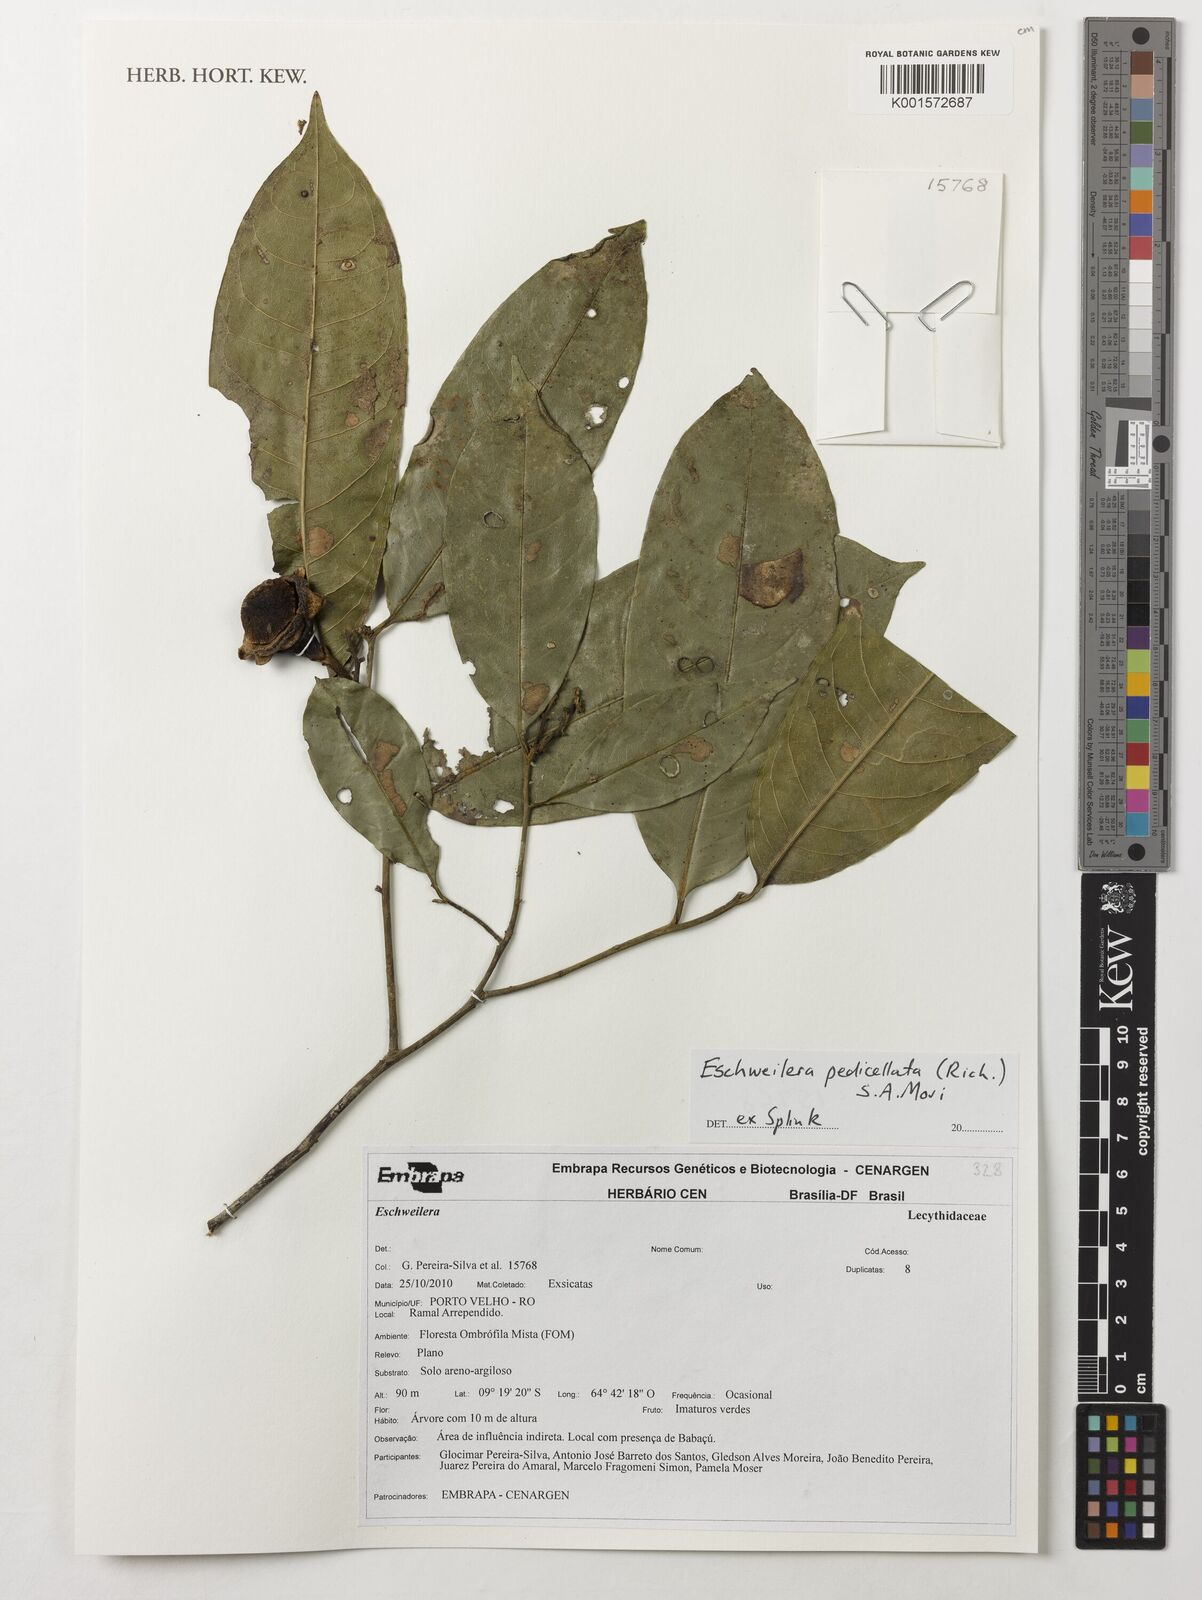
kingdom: Plantae
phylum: Tracheophyta
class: Magnoliopsida
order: Ericales
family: Lecythidaceae
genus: Eschweilera
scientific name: Eschweilera pedicellata
